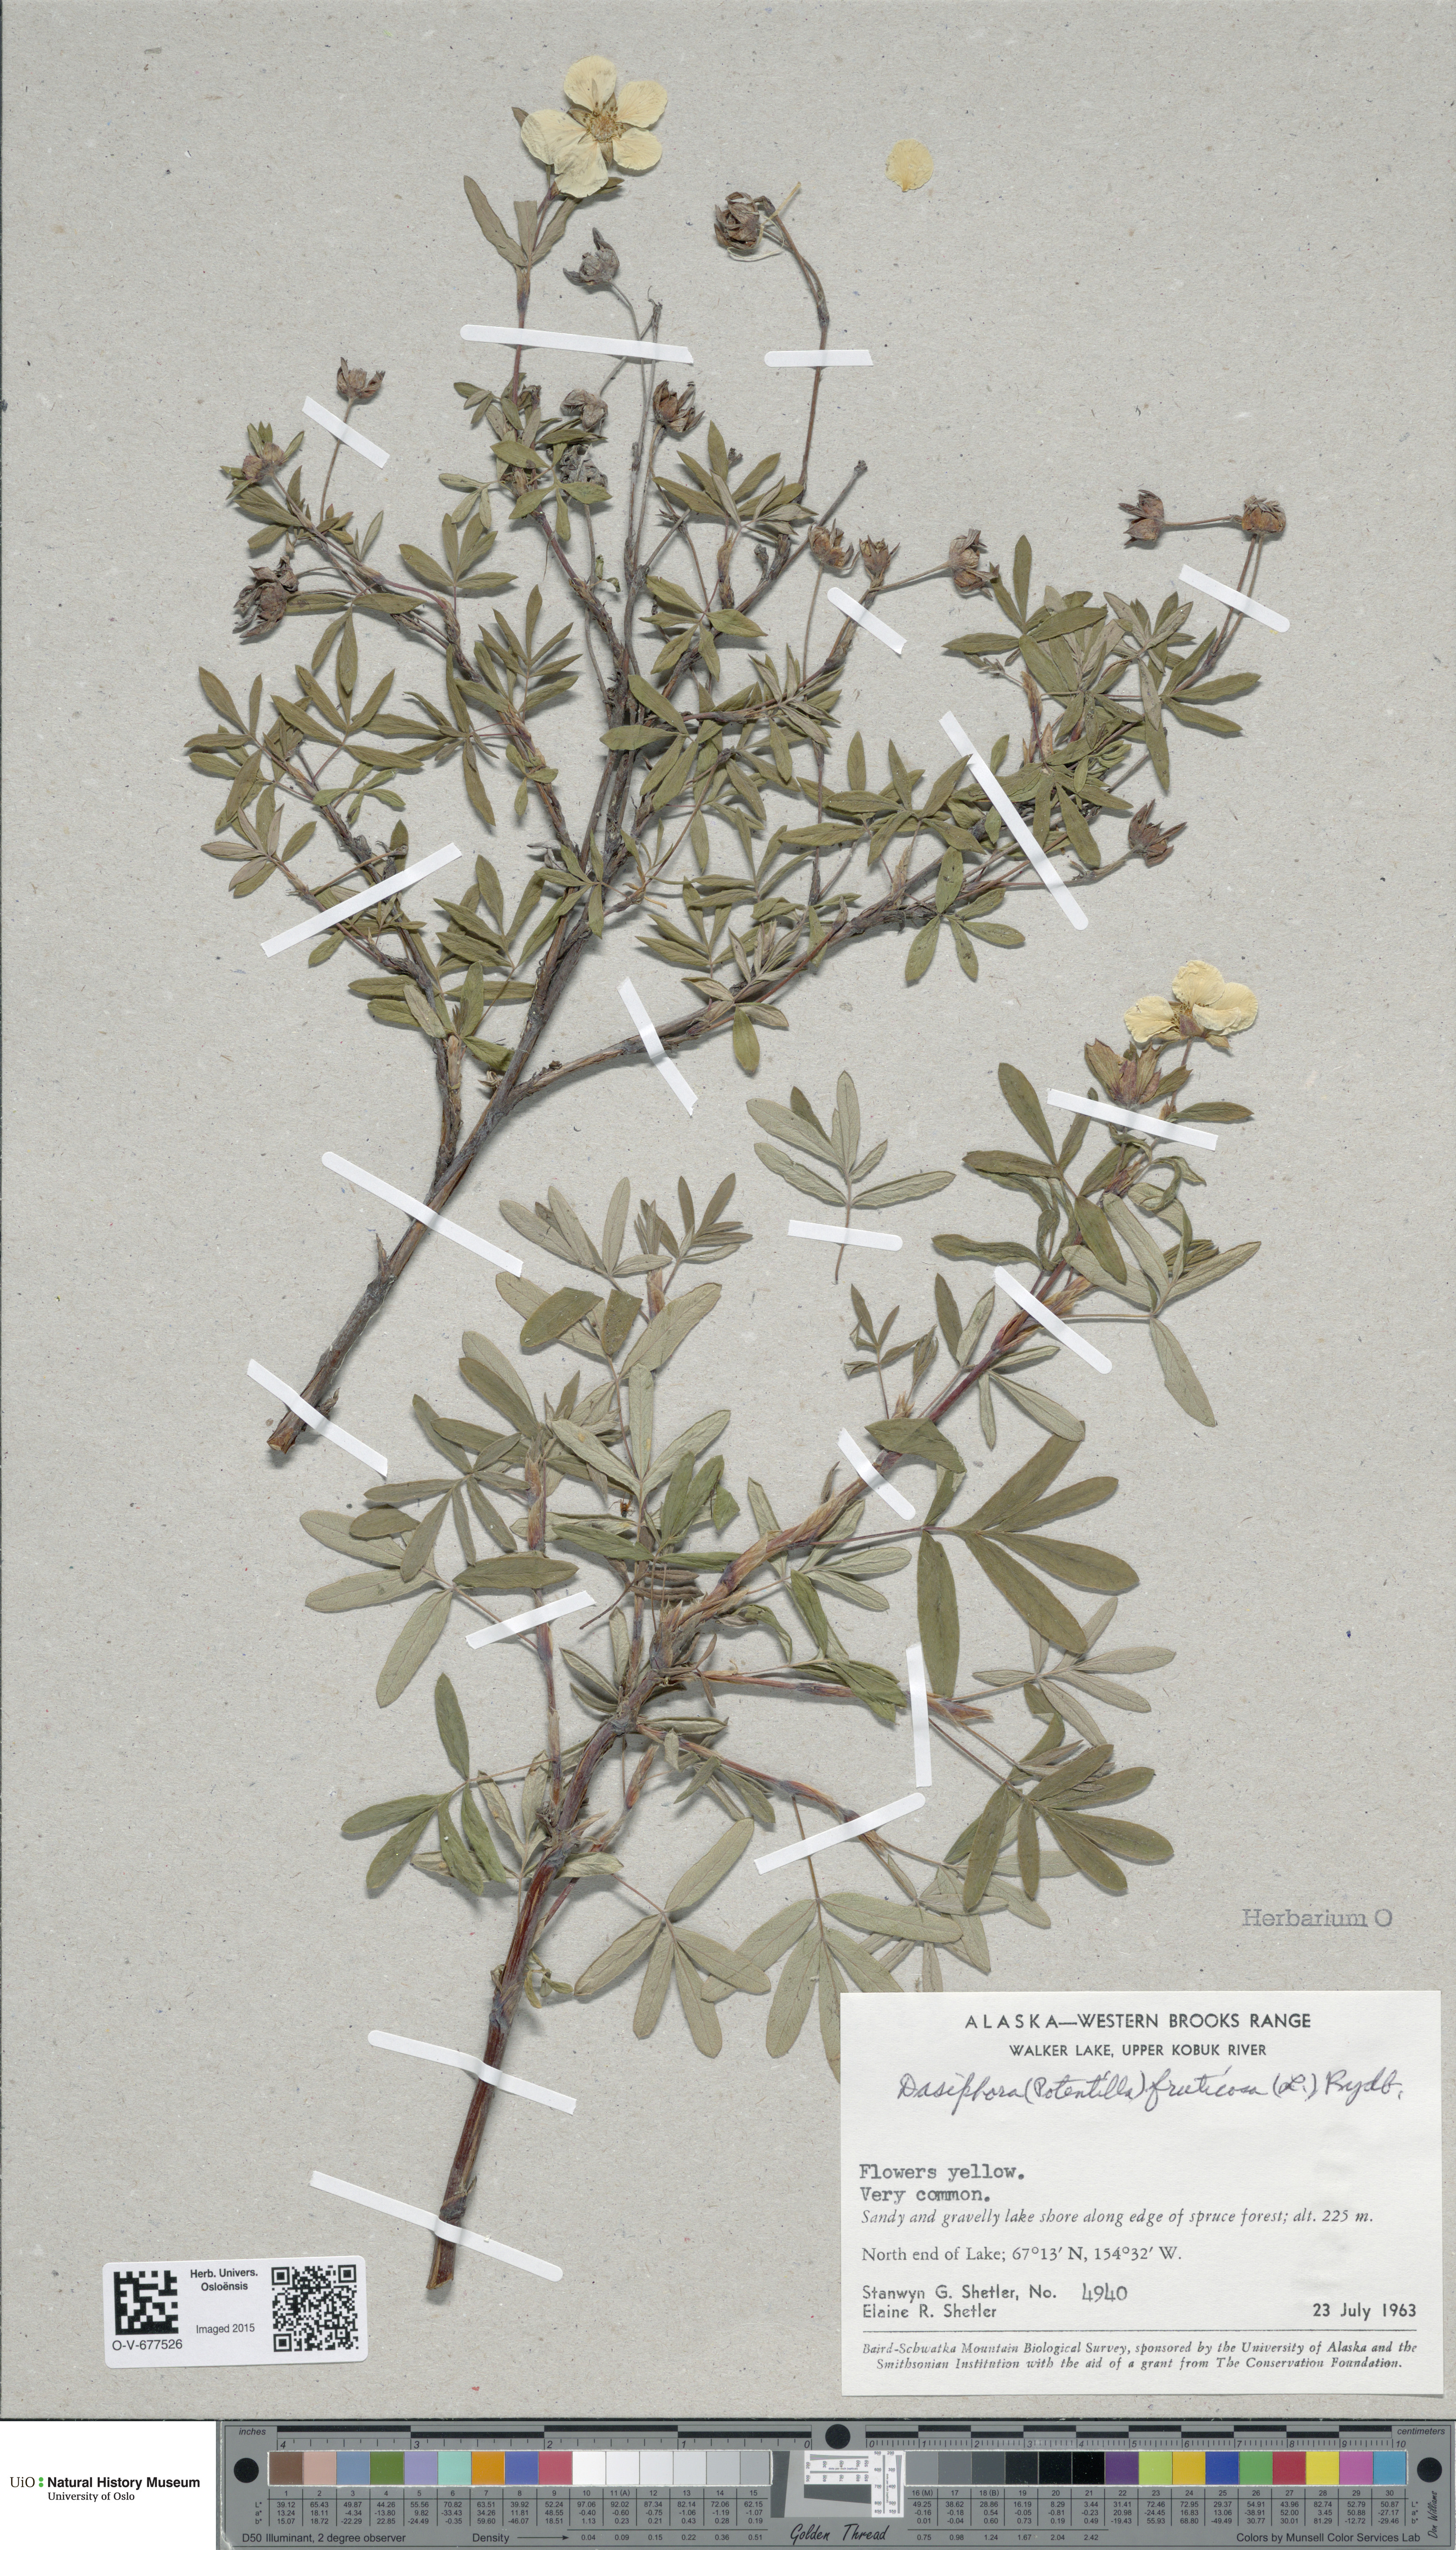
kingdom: Plantae
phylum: Tracheophyta
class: Magnoliopsida
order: Rosales
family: Rosaceae
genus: Dasiphora
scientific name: Dasiphora fruticosa
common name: Shrubby cinquefoil
